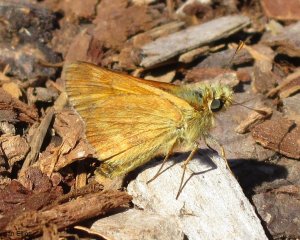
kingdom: Animalia
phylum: Arthropoda
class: Insecta
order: Lepidoptera
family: Hesperiidae
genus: Ochlodes
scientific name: Ochlodes sylvanoides
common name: Woodland Skipper
